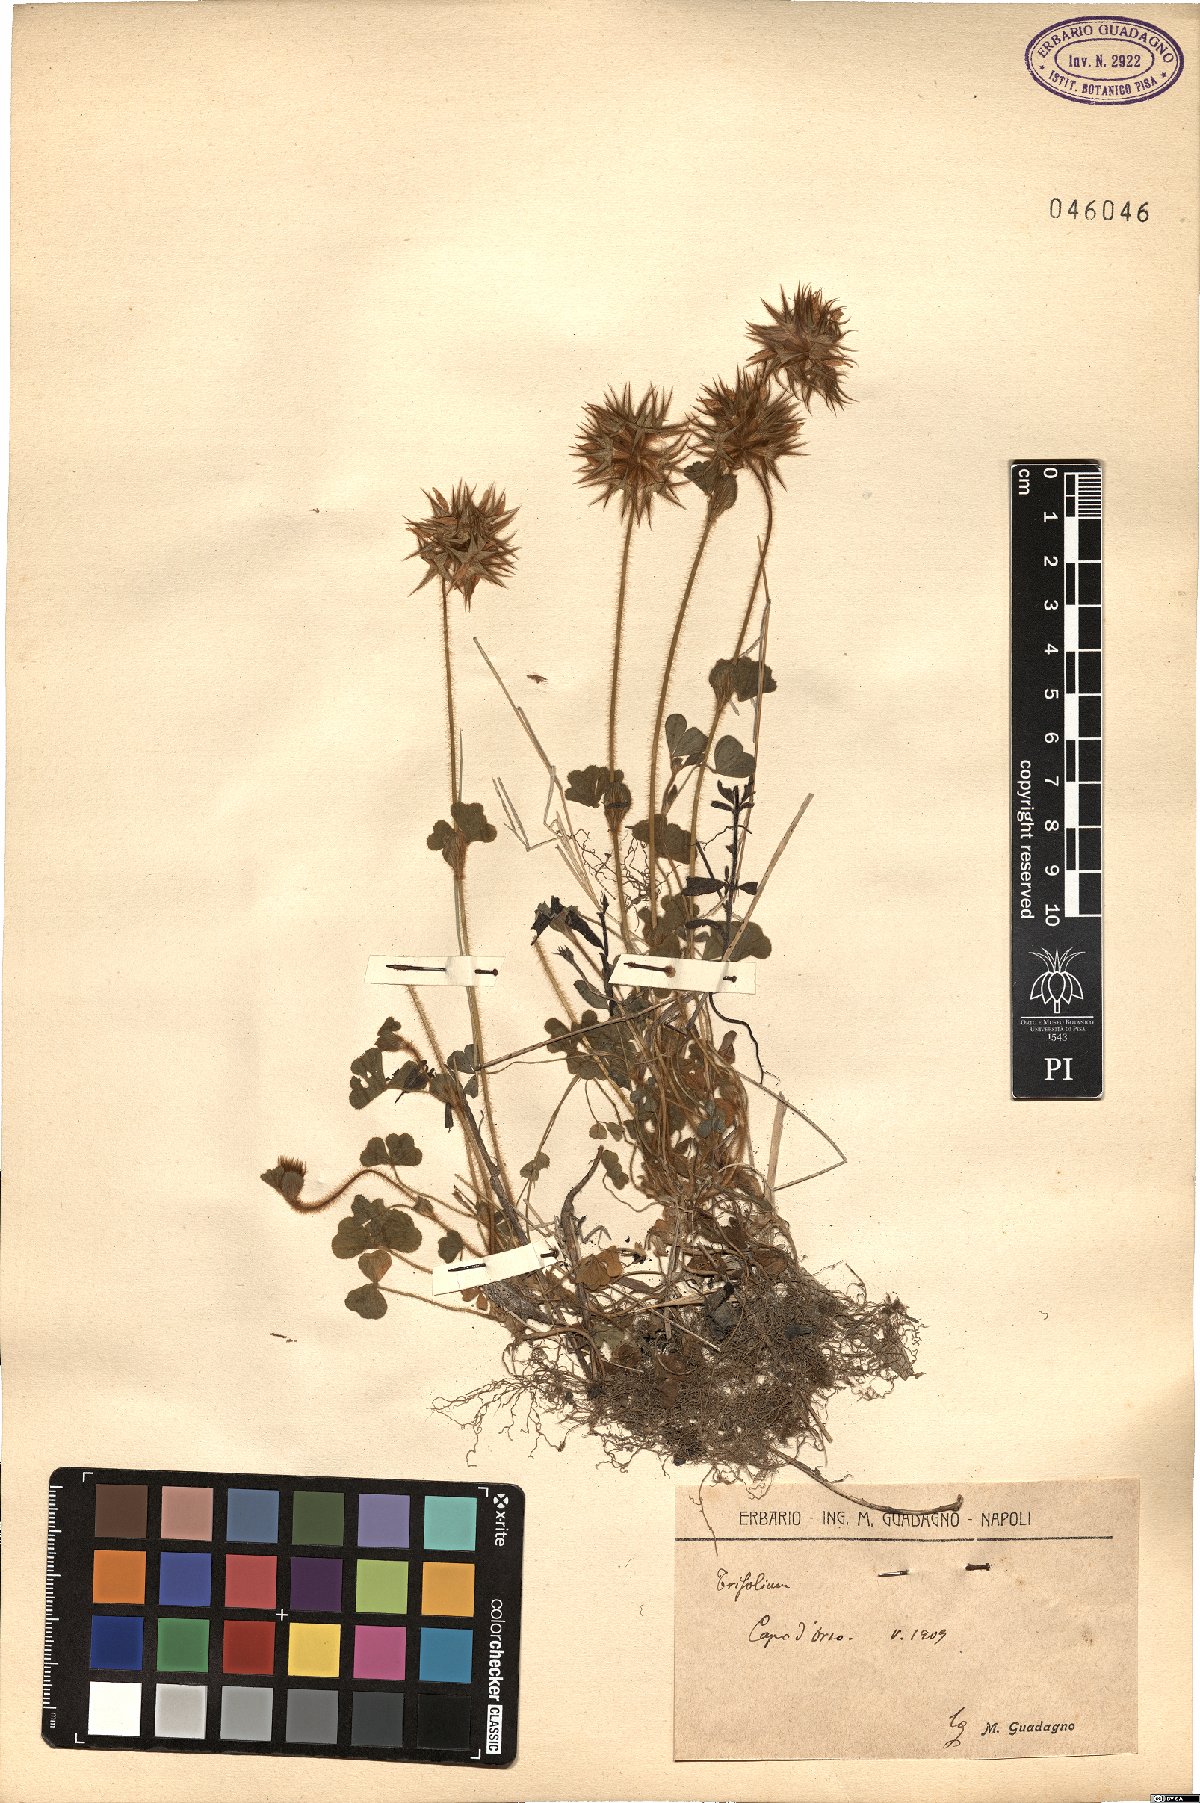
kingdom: Plantae
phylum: Tracheophyta
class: Magnoliopsida
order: Fabales
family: Fabaceae
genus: Trifolium
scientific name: Trifolium
